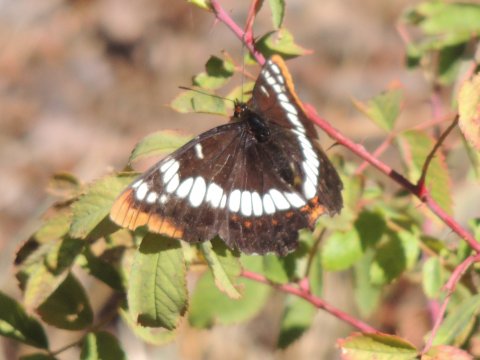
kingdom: Animalia
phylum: Arthropoda
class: Insecta
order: Lepidoptera
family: Nymphalidae
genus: Limenitis
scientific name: Limenitis lorquini
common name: Lorquin's Admiral
